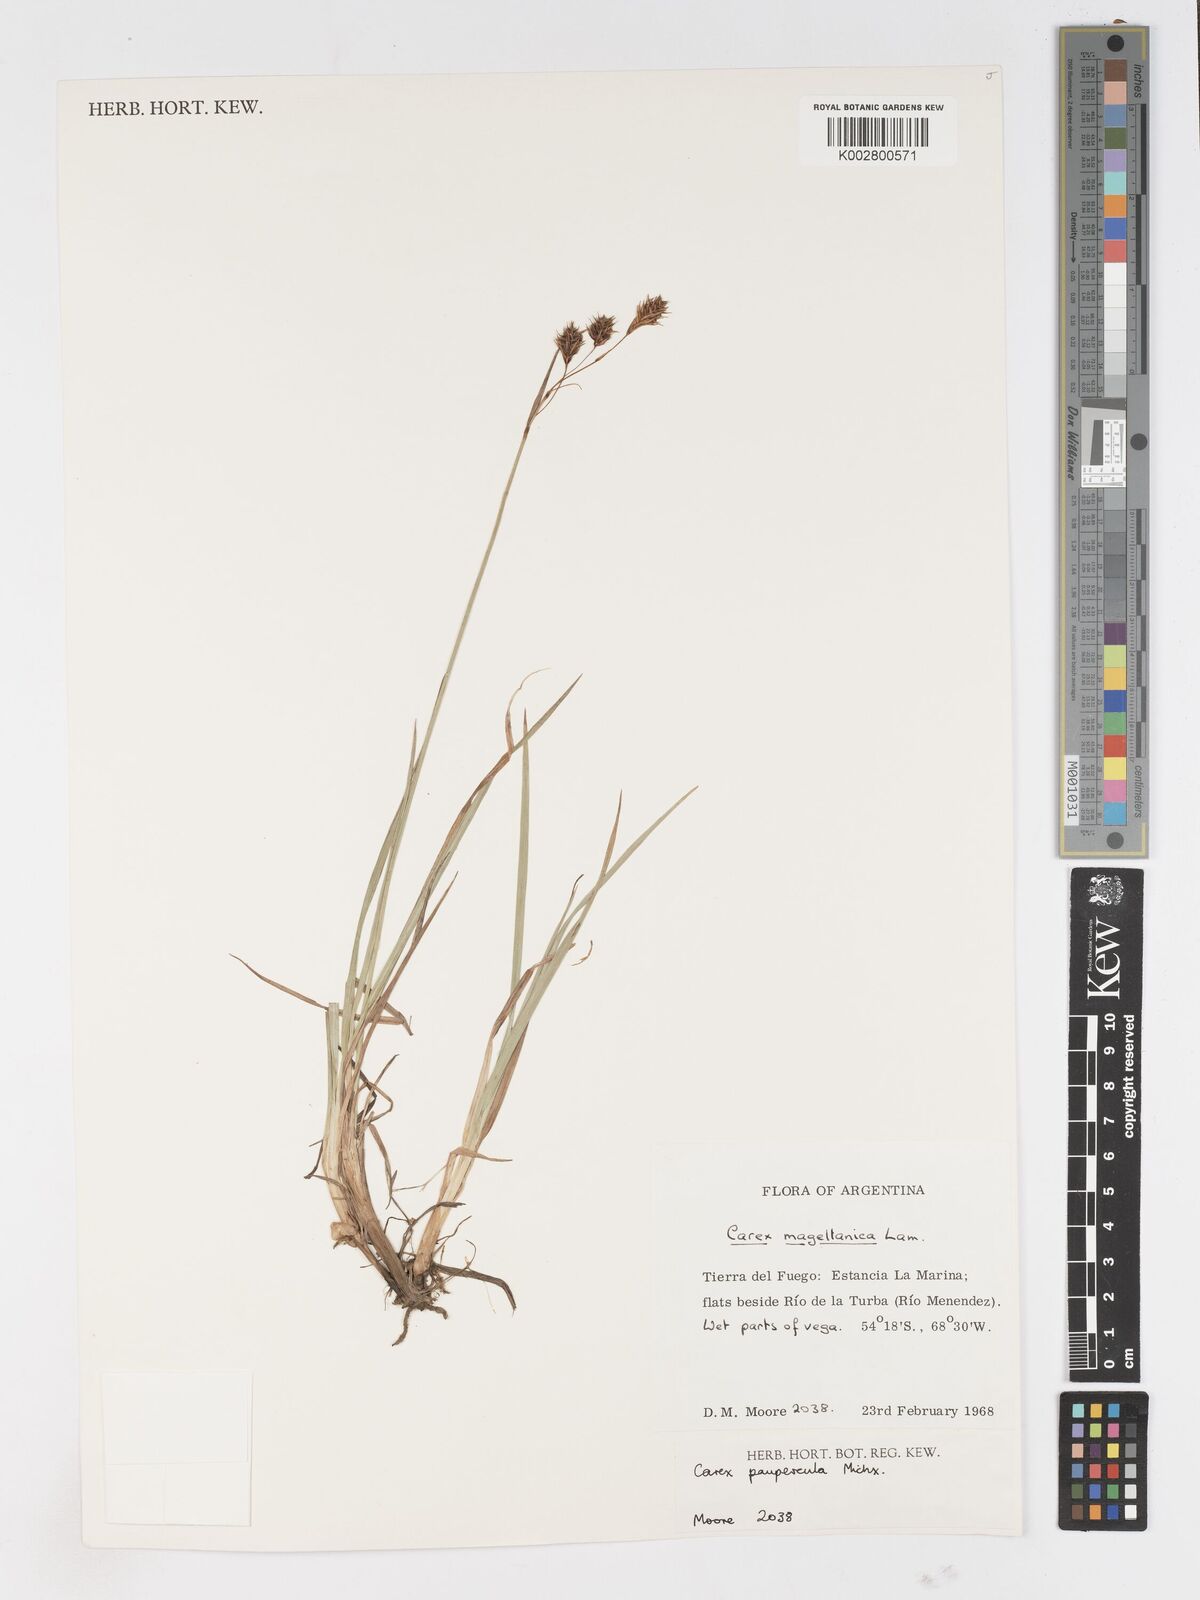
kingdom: Plantae
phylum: Tracheophyta
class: Liliopsida
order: Poales
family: Cyperaceae
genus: Carex
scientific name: Carex magellanica
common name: Bog sedge
